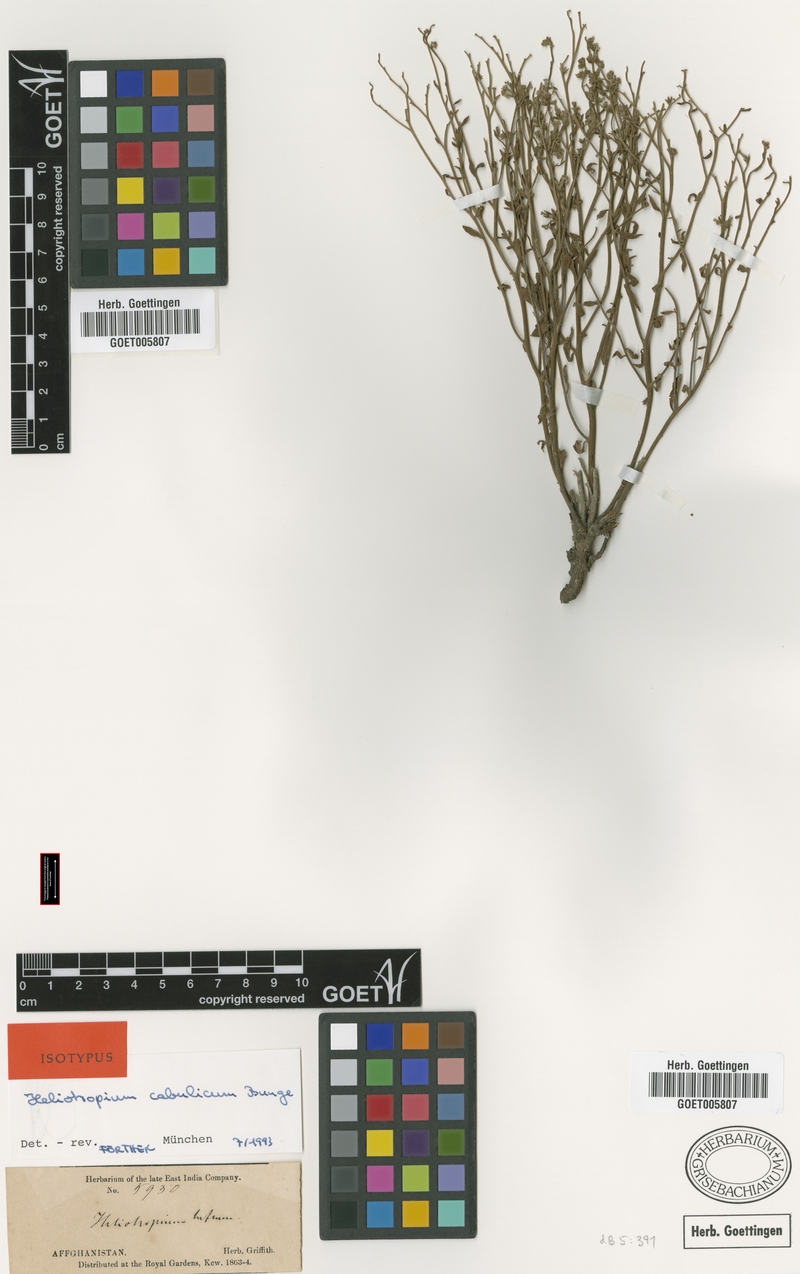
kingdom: Plantae
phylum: Tracheophyta
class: Magnoliopsida
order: Boraginales
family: Heliotropiaceae
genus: Heliotropium
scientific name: Heliotropium cabulicum
